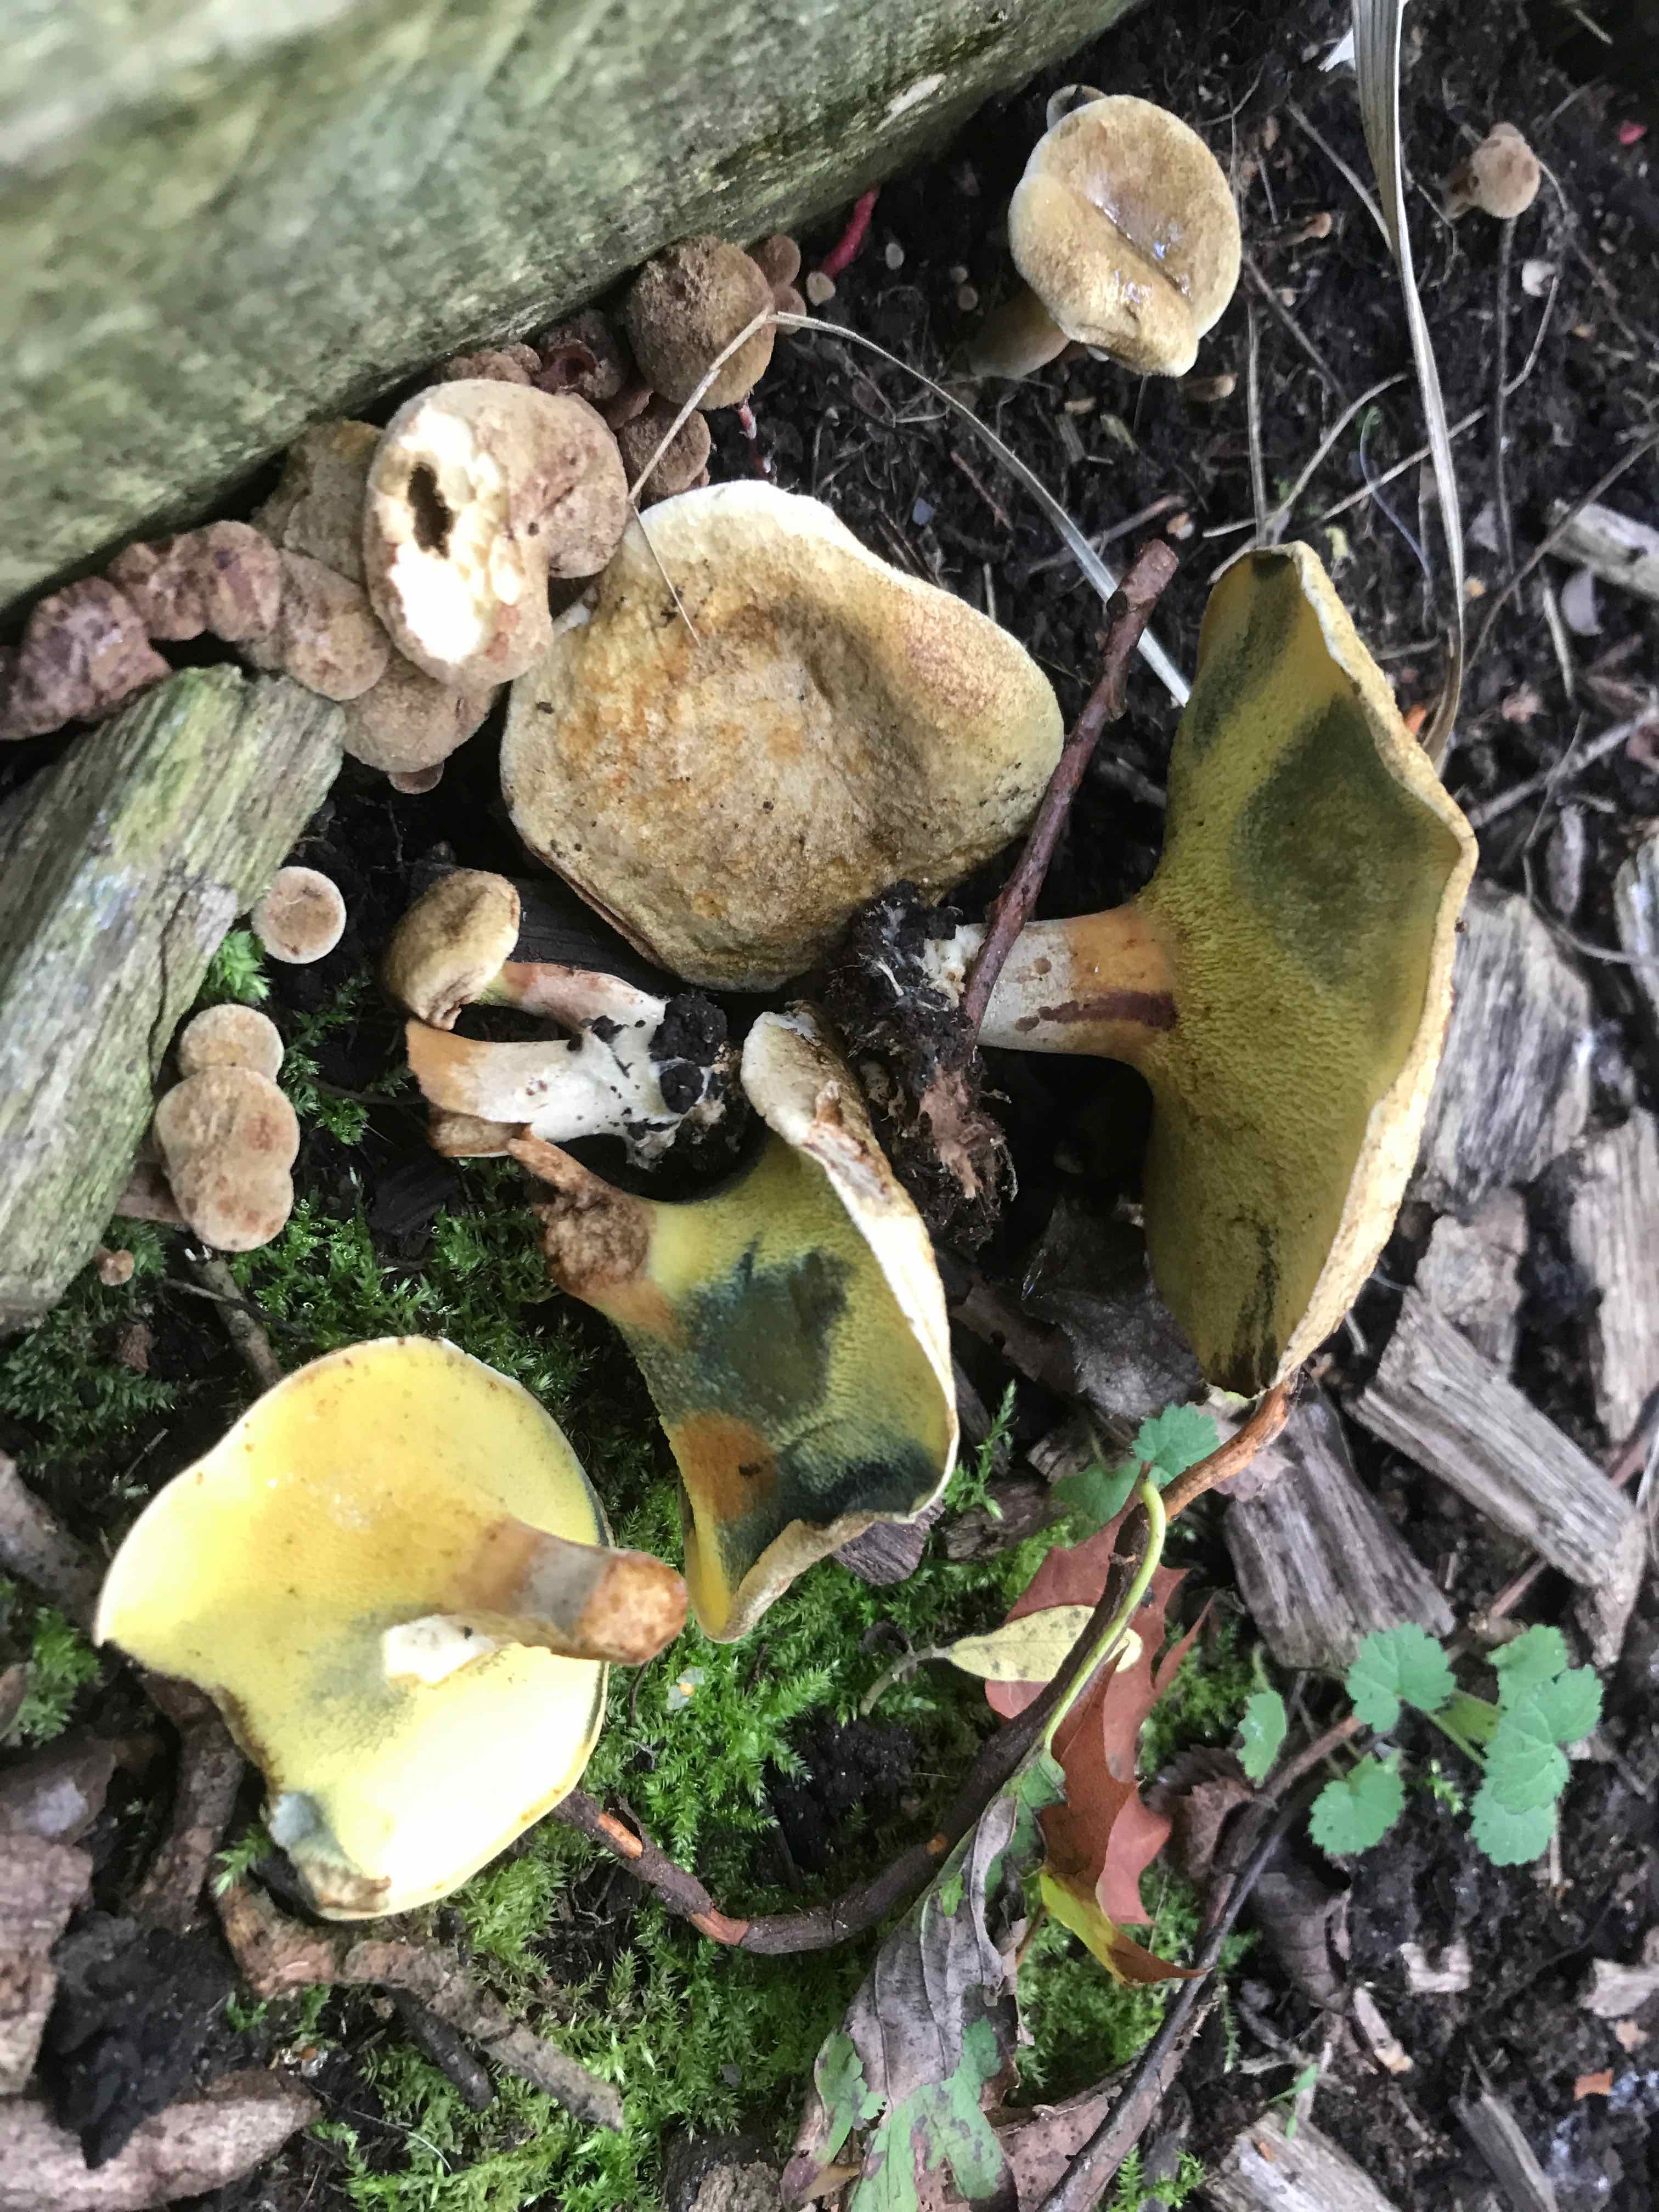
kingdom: Fungi
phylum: Basidiomycota
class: Agaricomycetes
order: Boletales
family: Paxillaceae
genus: Gyrodon
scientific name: Gyrodon lividus
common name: ellerørhat
